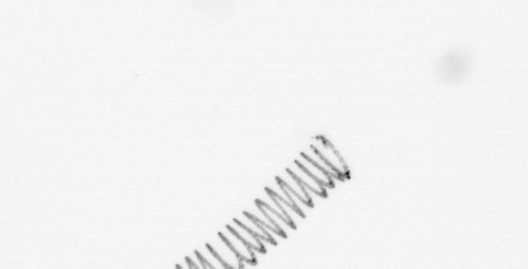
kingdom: Chromista
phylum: Ochrophyta
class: Bacillariophyceae
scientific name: Bacillariophyceae
